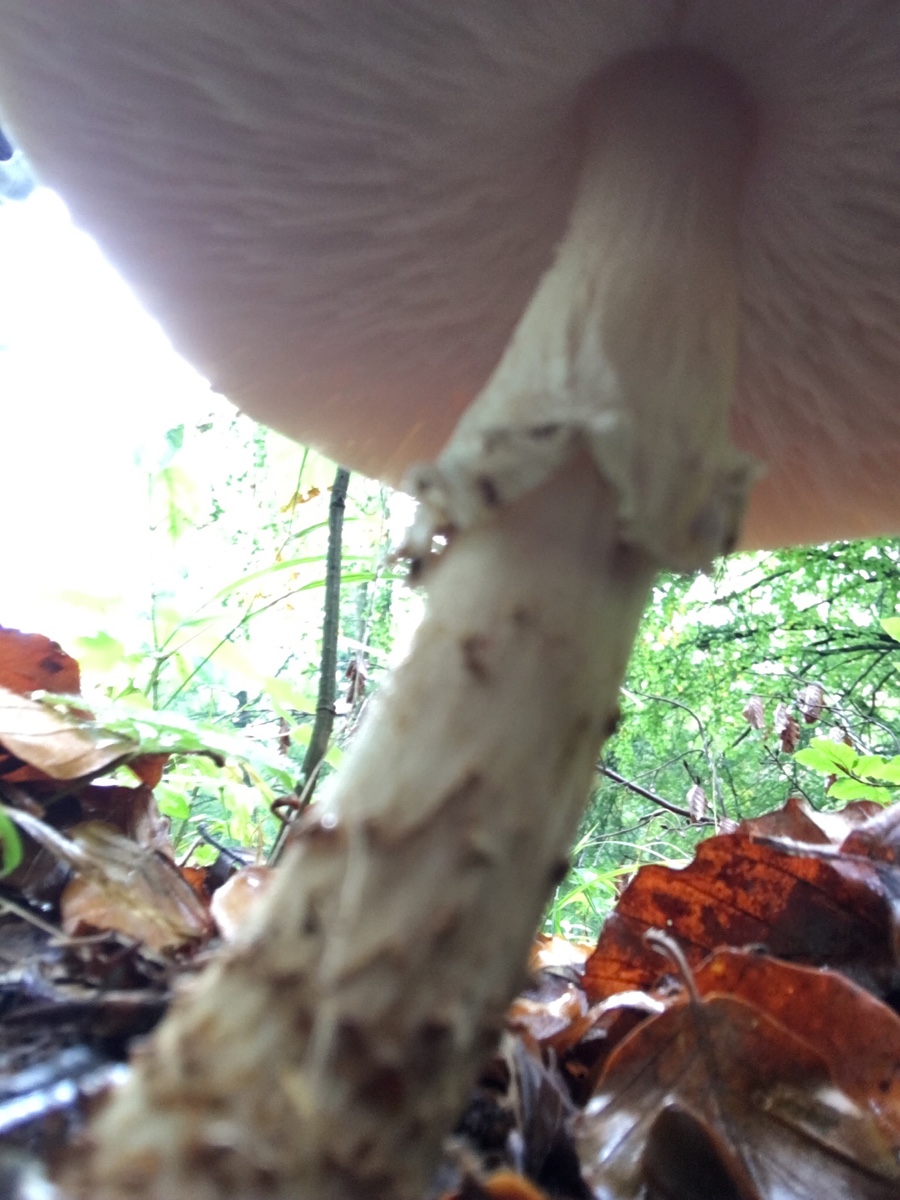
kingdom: Fungi
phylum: Basidiomycota
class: Agaricomycetes
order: Agaricales
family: Agaricaceae
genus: Echinoderma
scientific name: Echinoderma asperum
